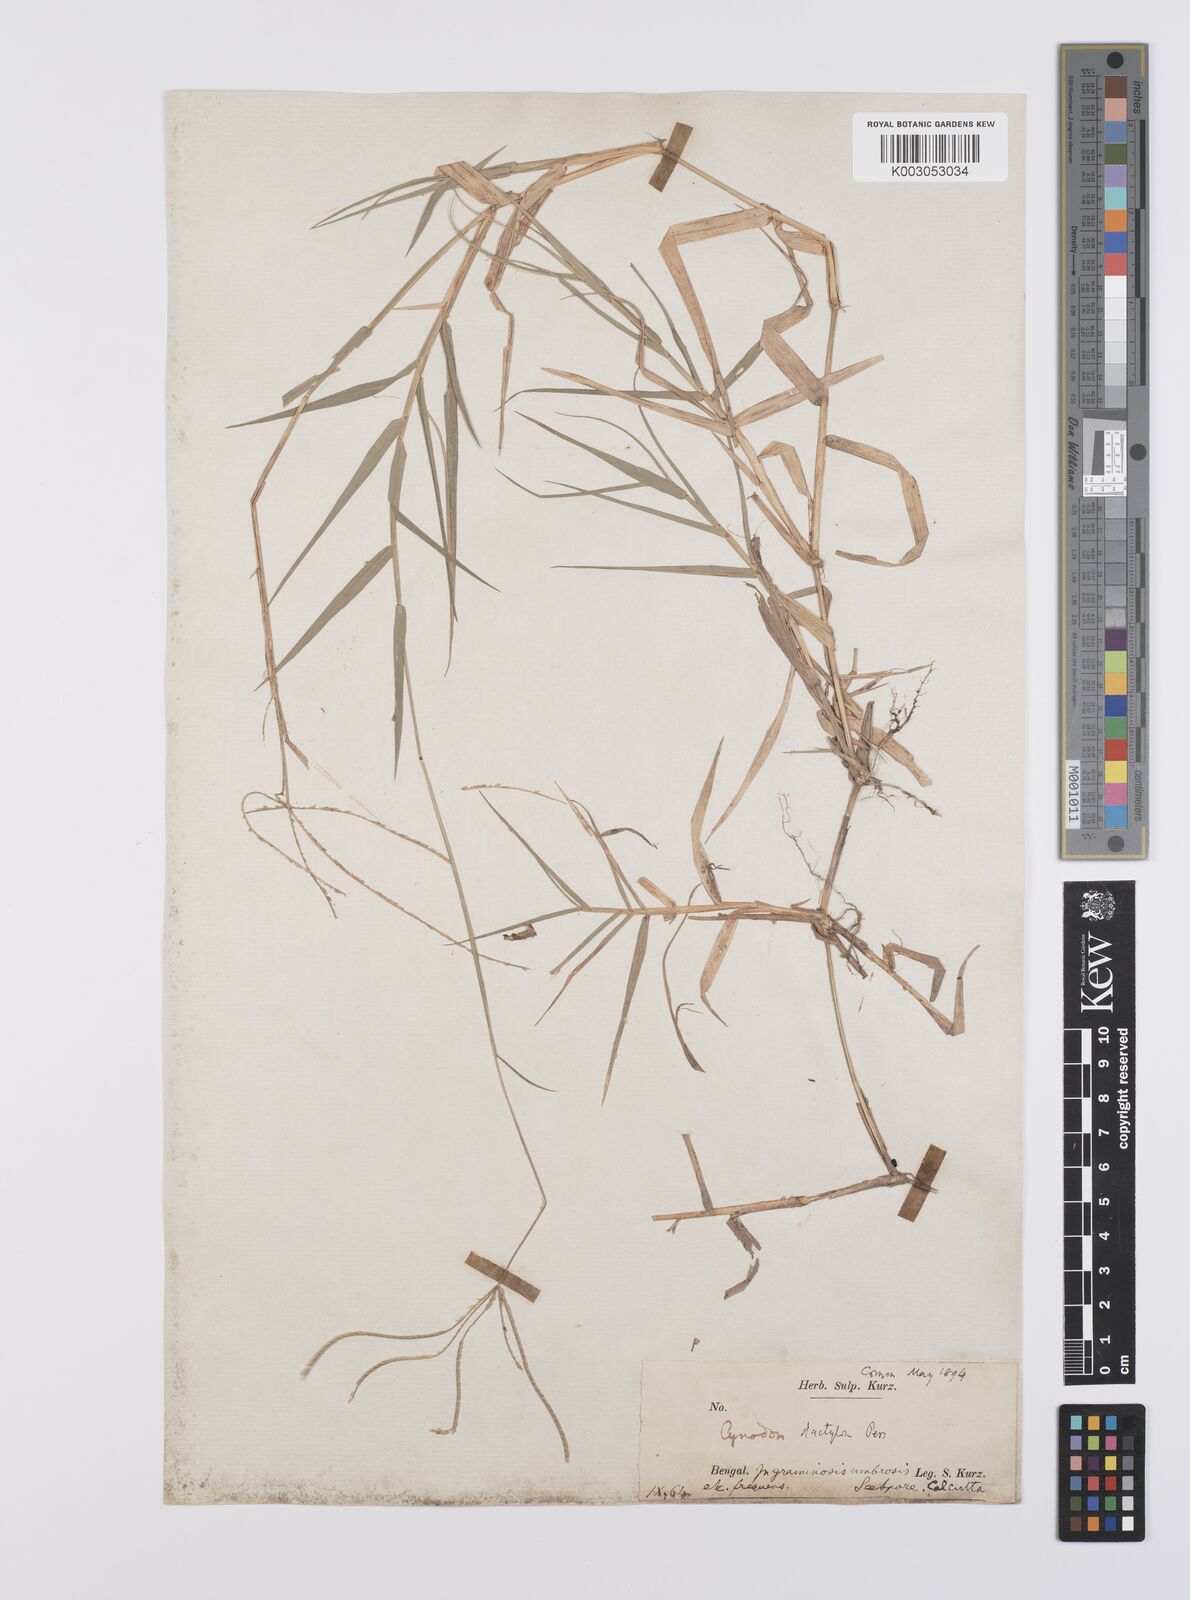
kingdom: Plantae
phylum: Tracheophyta
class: Liliopsida
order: Poales
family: Poaceae
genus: Cynodon
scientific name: Cynodon radiatus
